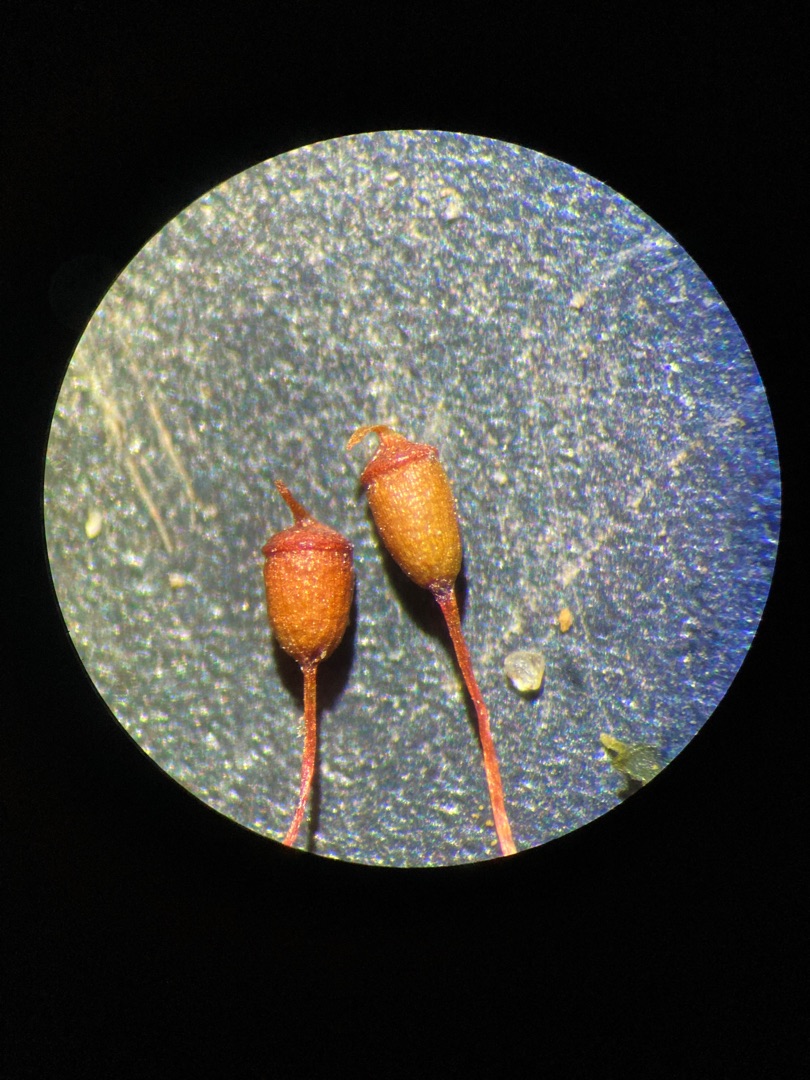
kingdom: Plantae
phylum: Bryophyta
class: Bryopsida
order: Pottiales
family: Pottiaceae
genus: Tortula
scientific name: Tortula caucasica
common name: Mark-bægermos
